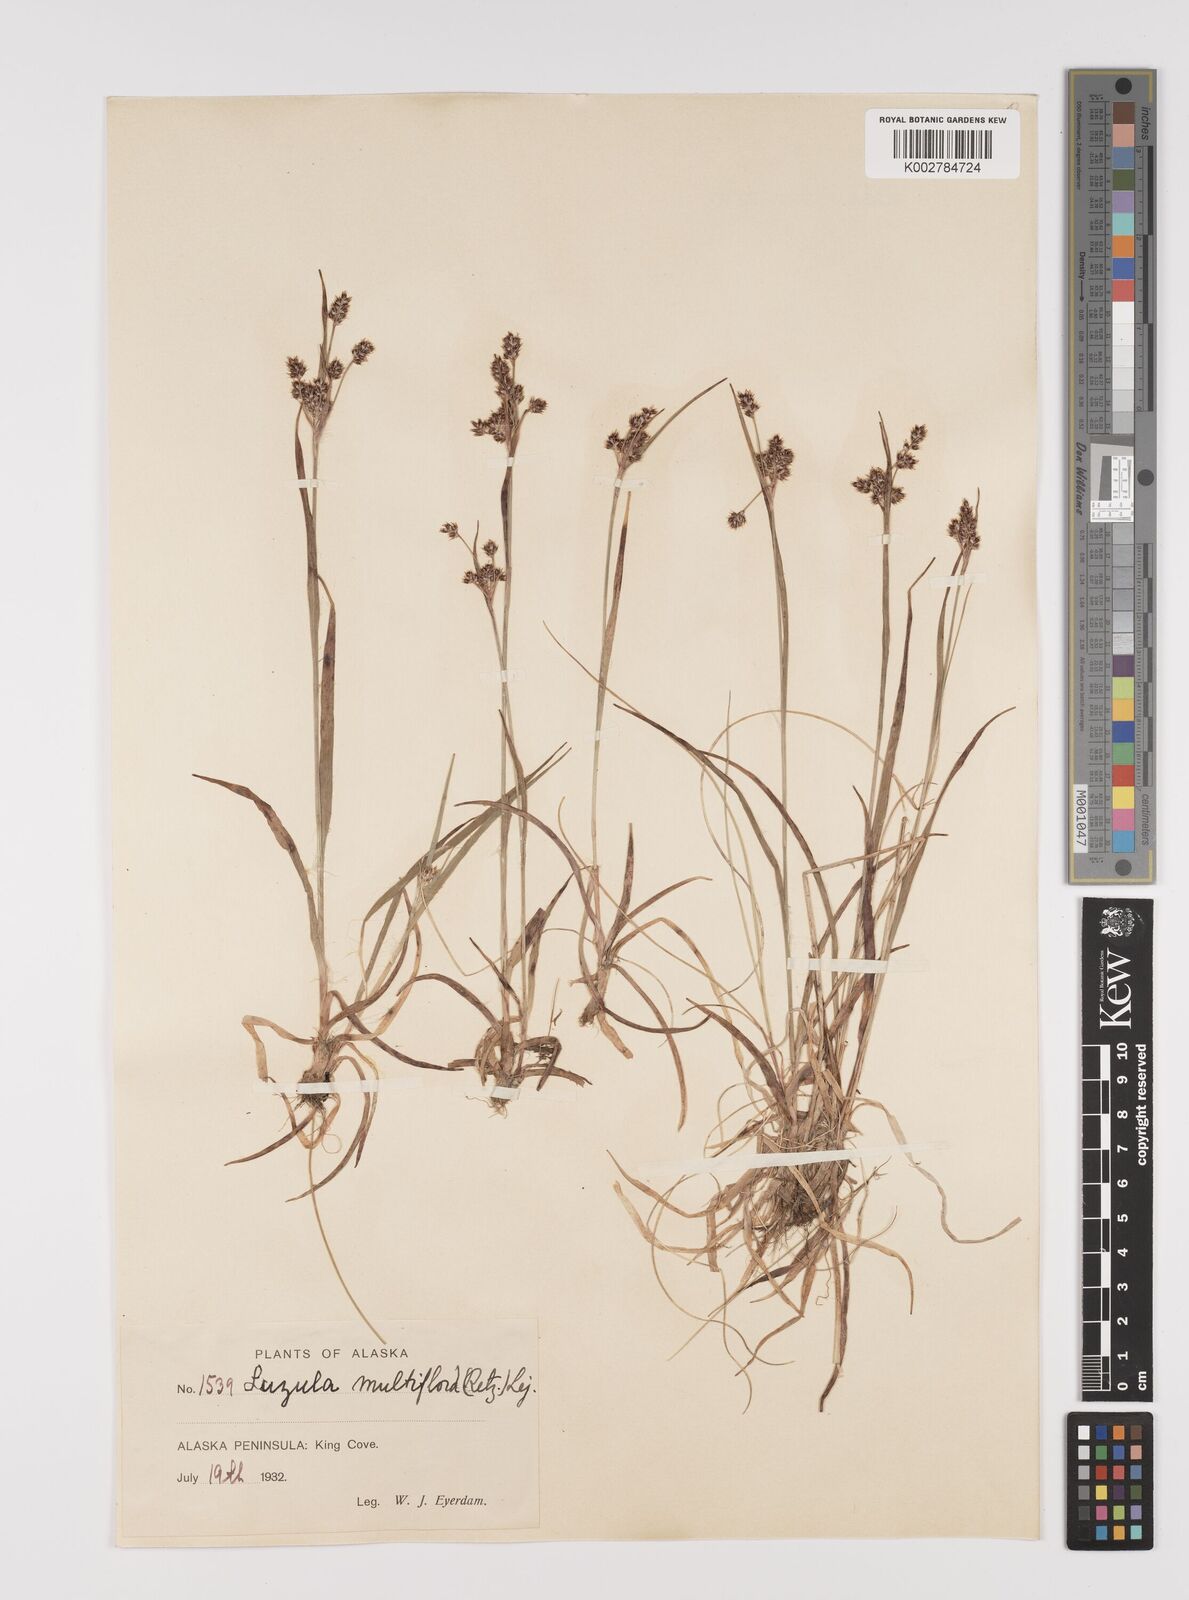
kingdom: Plantae
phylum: Tracheophyta
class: Liliopsida
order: Poales
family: Juncaceae
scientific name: Juncaceae
